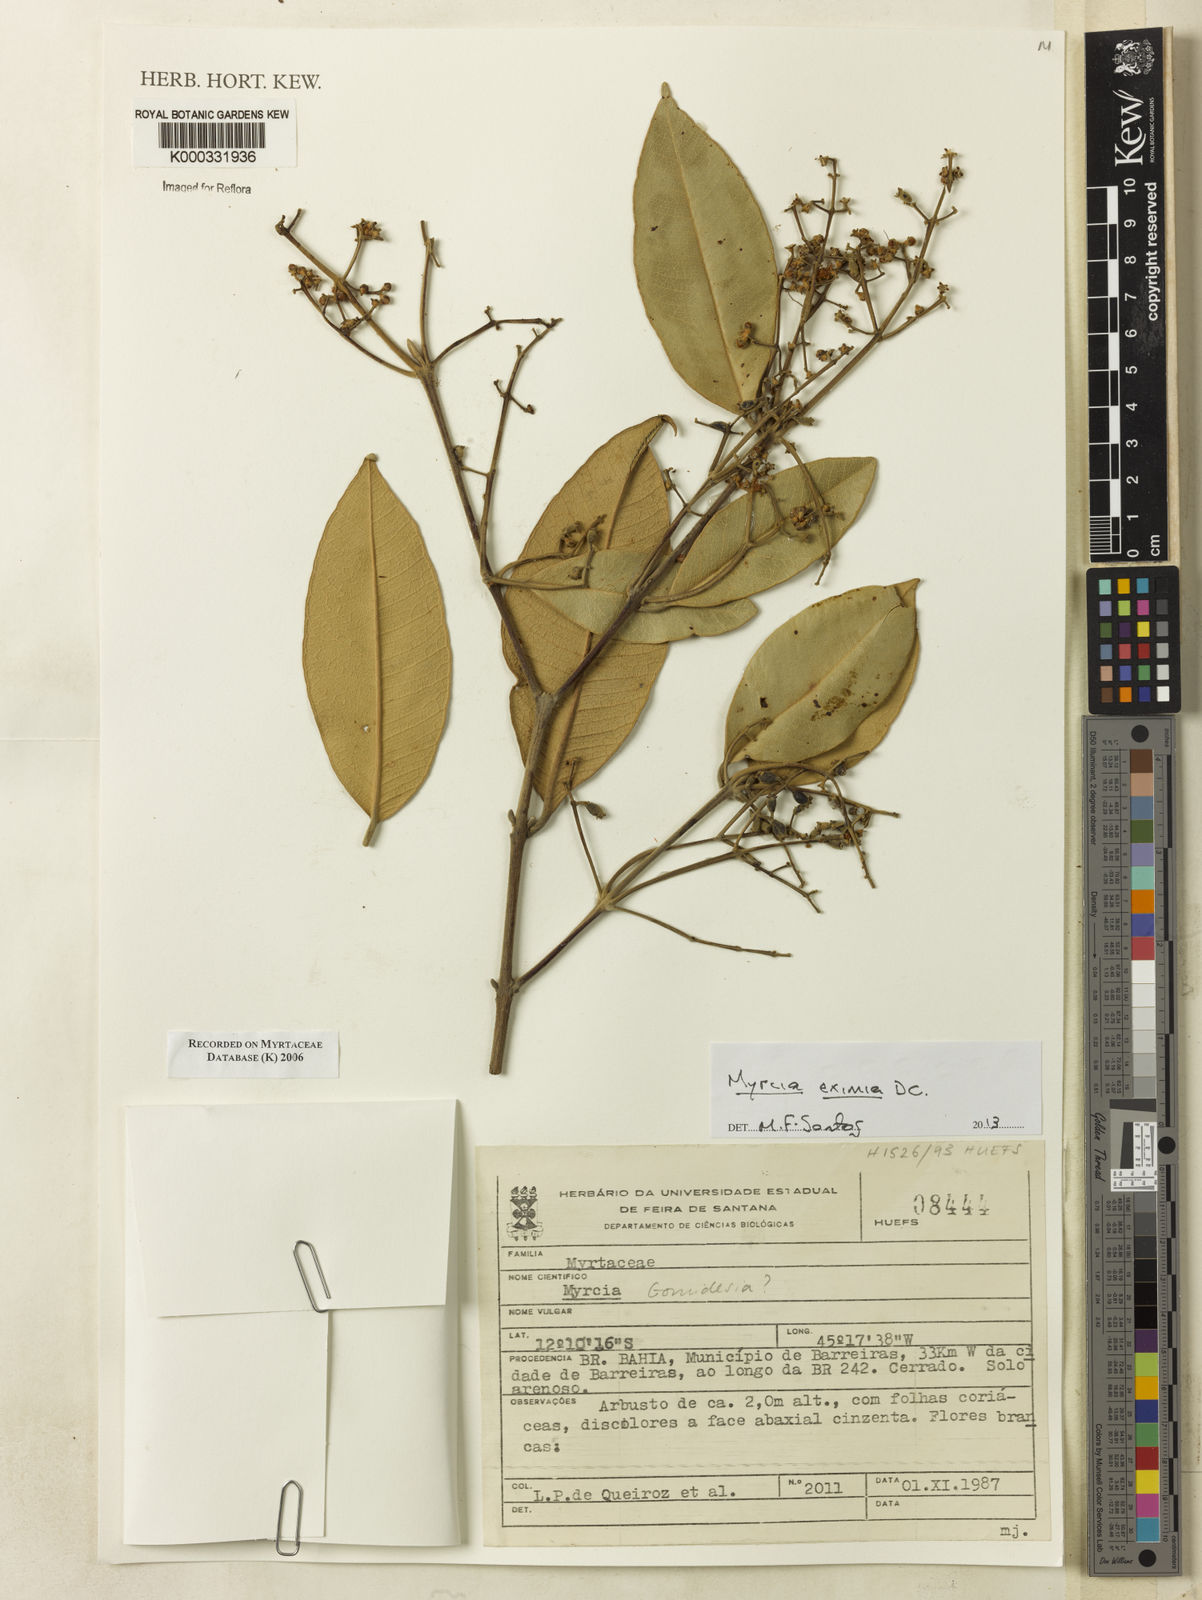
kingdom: Plantae
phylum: Tracheophyta
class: Magnoliopsida
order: Myrtales
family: Myrtaceae
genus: Myrcia
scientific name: Myrcia
